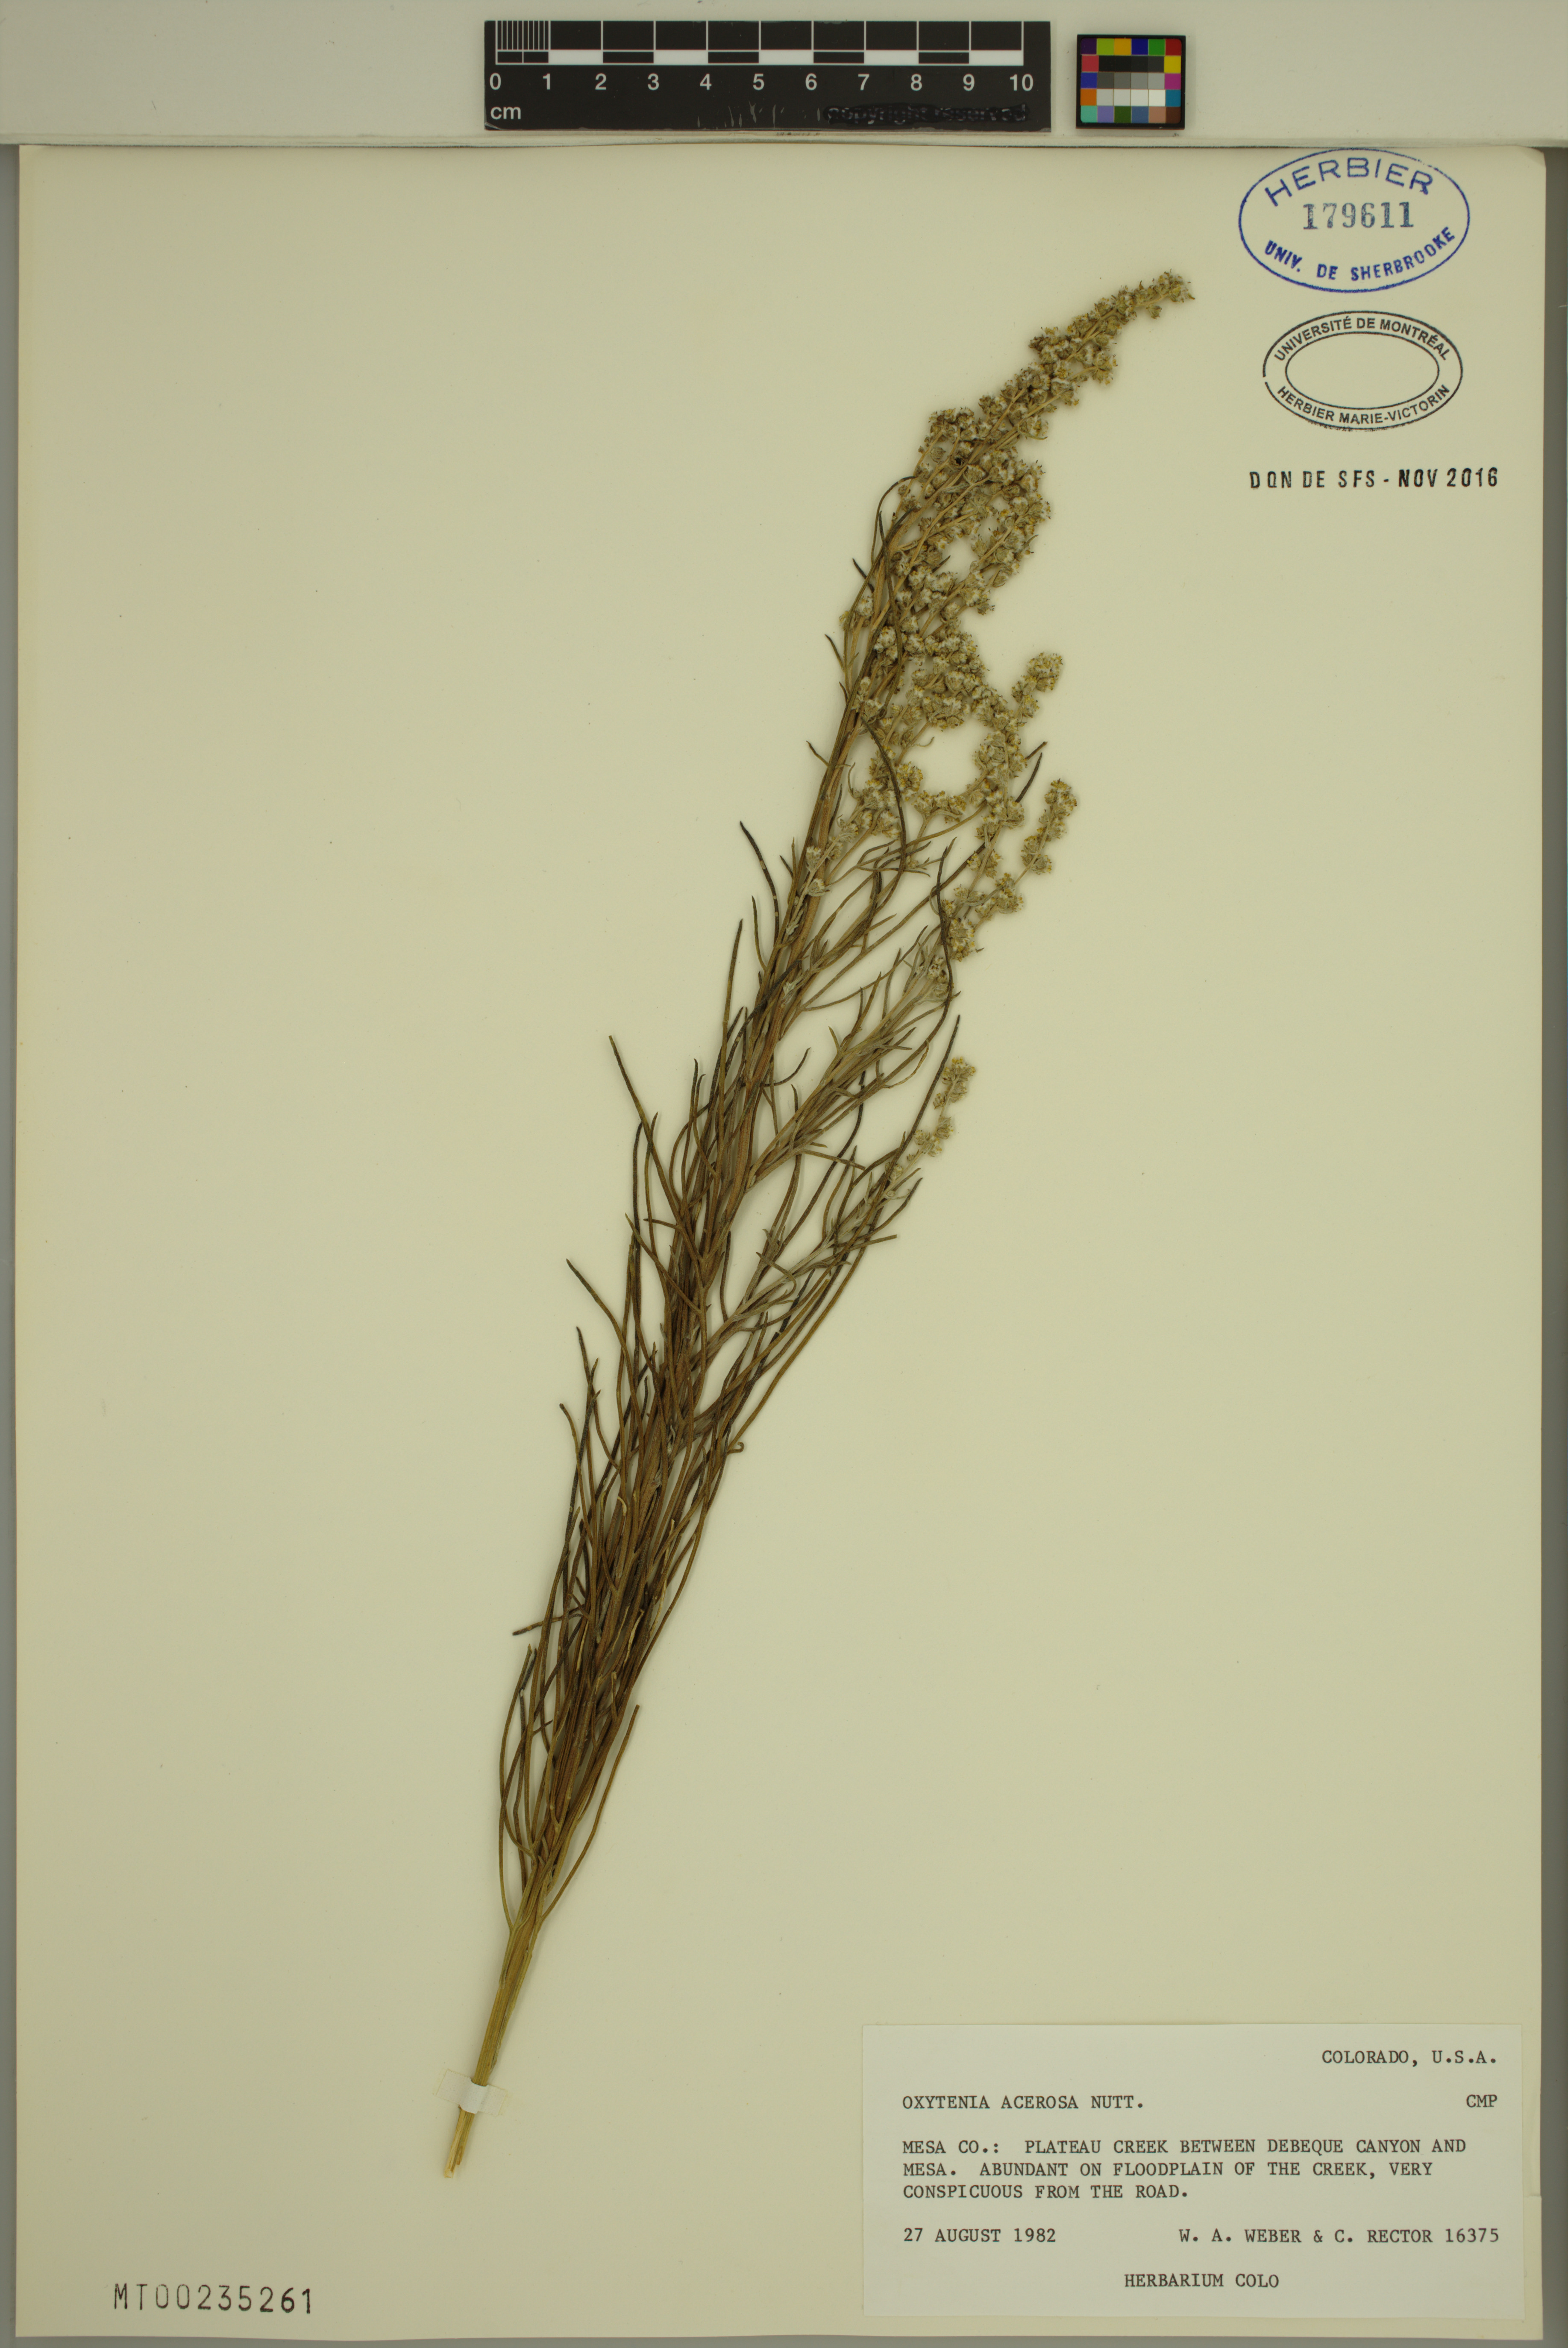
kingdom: Plantae
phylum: Tracheophyta
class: Magnoliopsida
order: Asterales
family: Asteraceae
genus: Euphrosyne
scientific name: Euphrosyne acerosa
